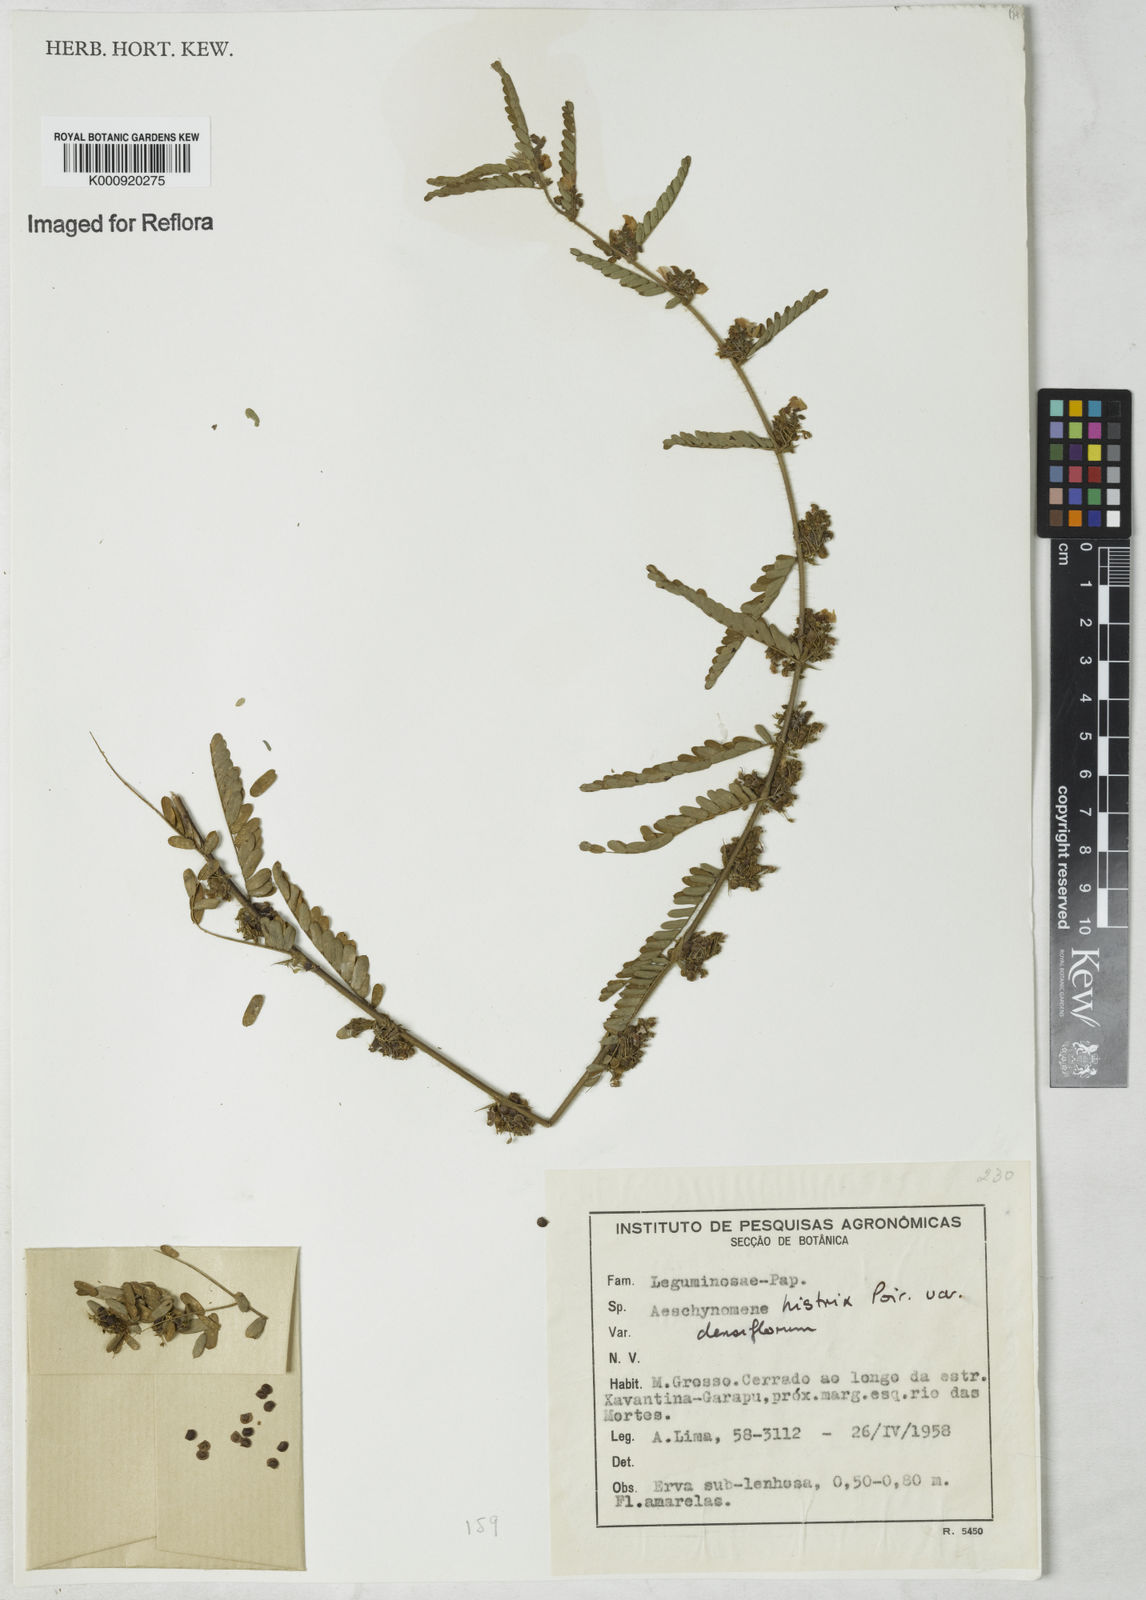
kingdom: Plantae
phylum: Tracheophyta
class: Magnoliopsida
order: Fabales
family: Fabaceae
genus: Ctenodon
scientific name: Ctenodon histrix
